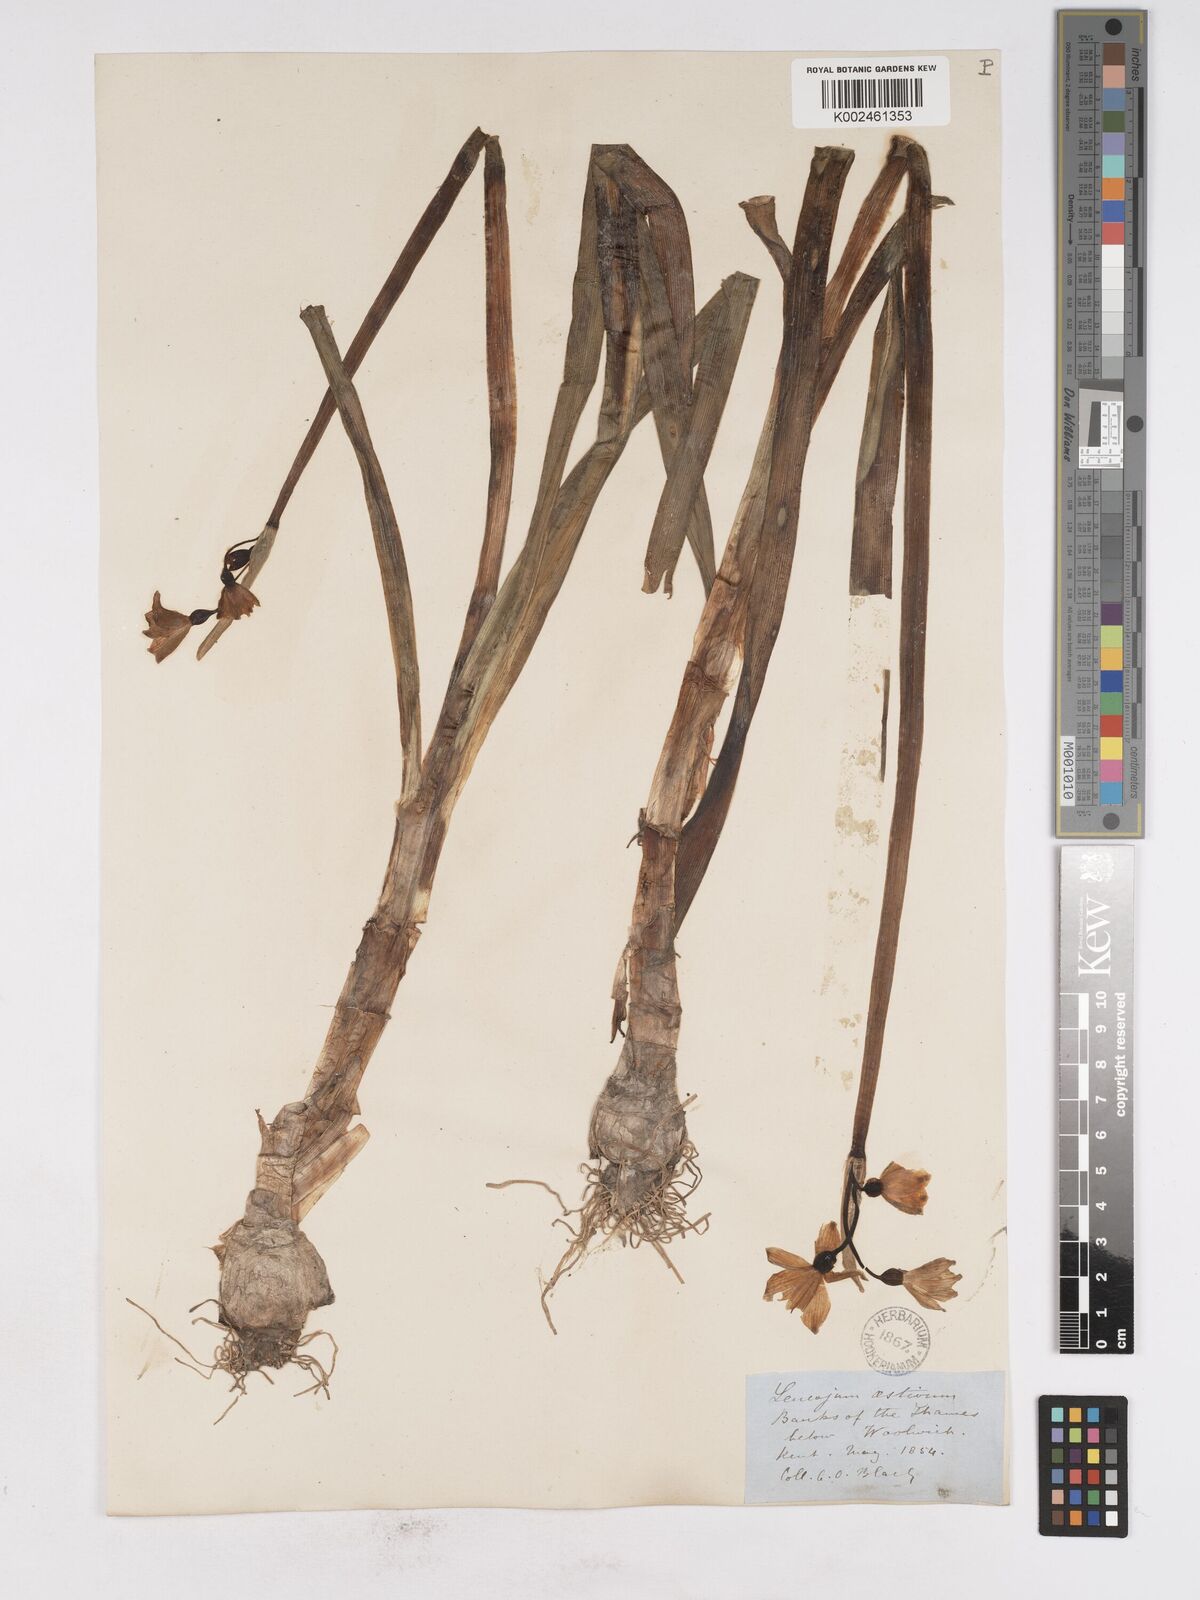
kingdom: Plantae
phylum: Tracheophyta
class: Liliopsida
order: Asparagales
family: Amaryllidaceae
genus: Leucojum
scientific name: Leucojum aestivum
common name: Summer snowflake
